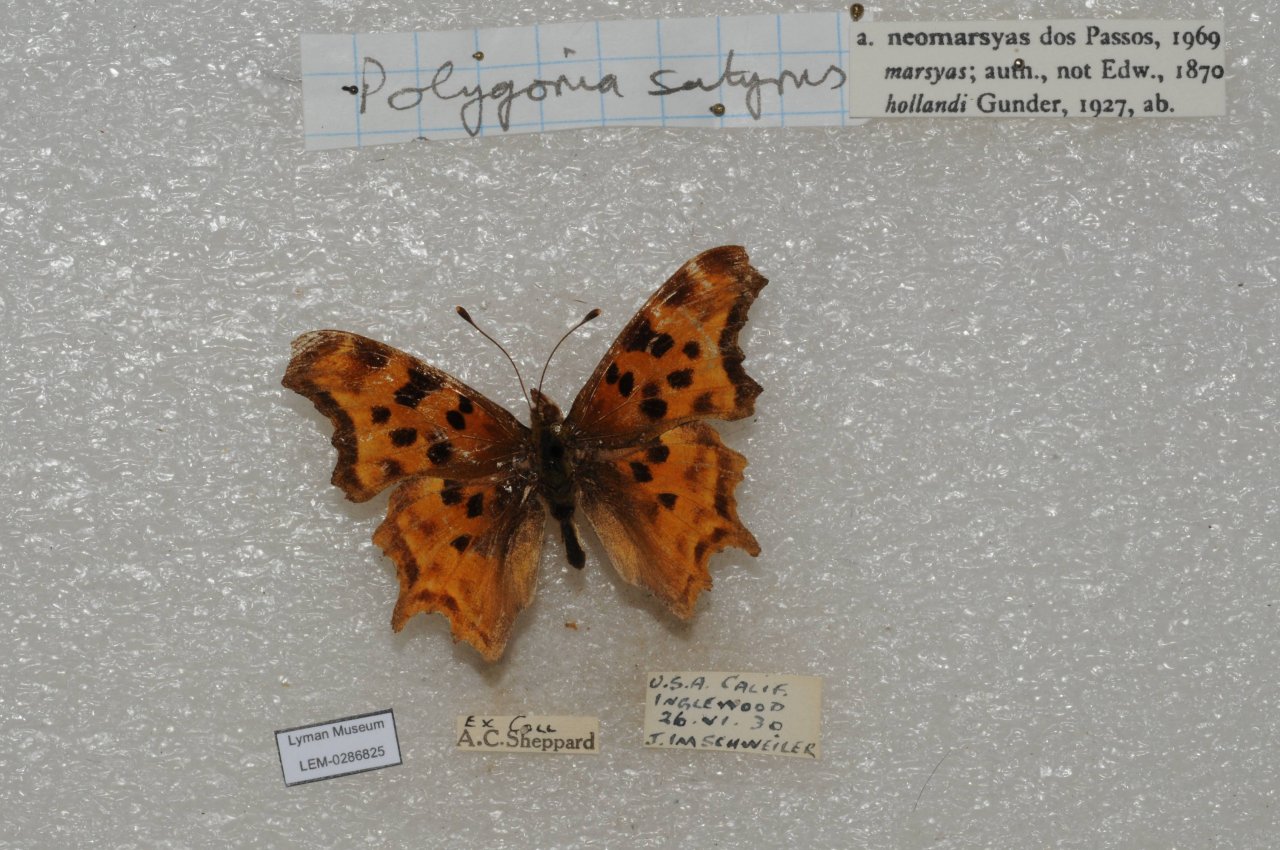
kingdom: Animalia
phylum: Arthropoda
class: Insecta
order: Lepidoptera
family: Nymphalidae
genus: Polygonia
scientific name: Polygonia satyrus
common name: Satyr Comma
